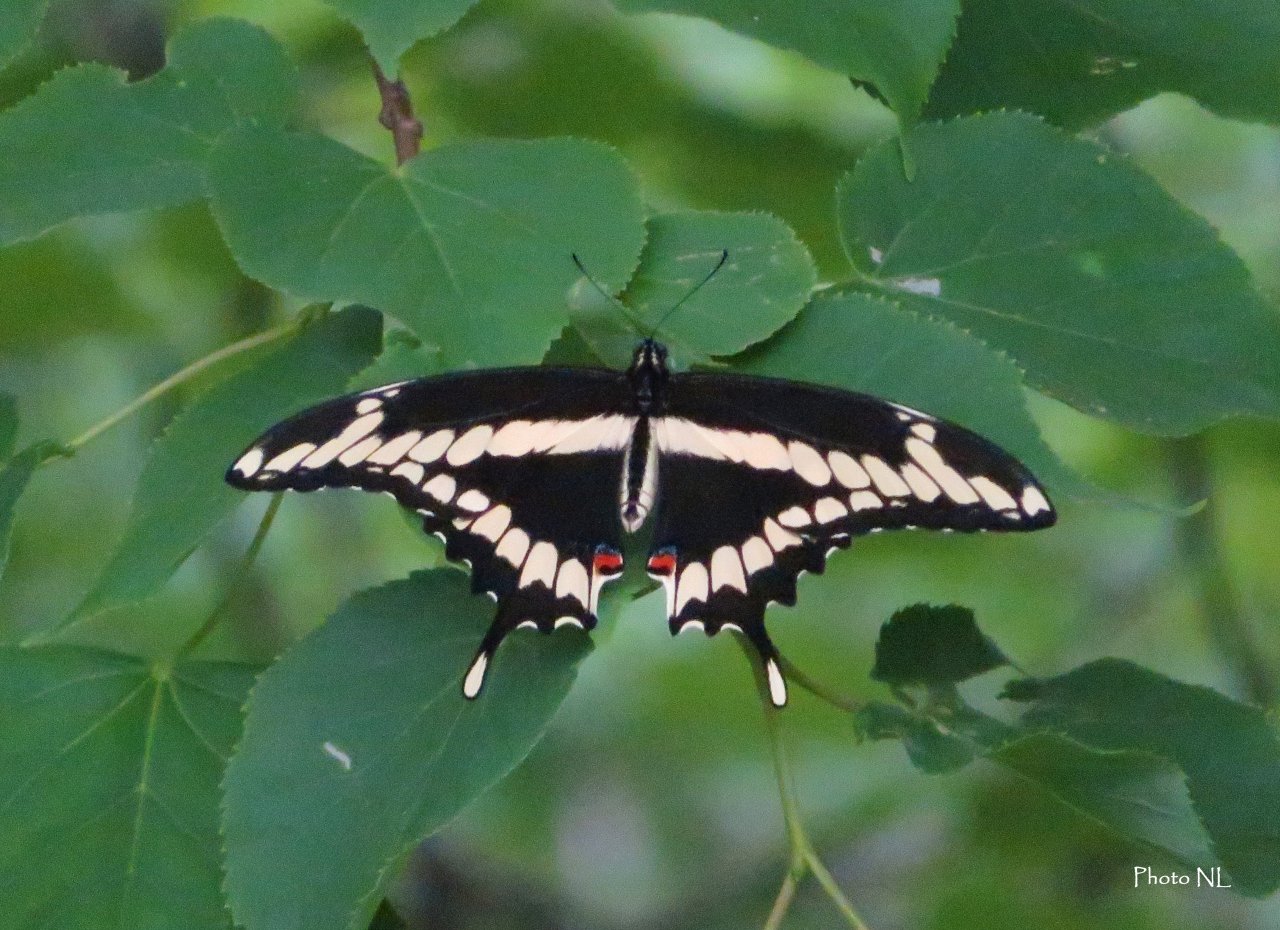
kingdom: Animalia
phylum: Arthropoda
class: Insecta
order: Lepidoptera
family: Papilionidae
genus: Papilio
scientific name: Papilio cresphontes
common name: Eastern Giant Swallowtail
